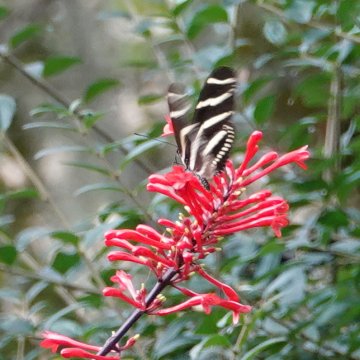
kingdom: Animalia
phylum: Arthropoda
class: Insecta
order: Lepidoptera
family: Nymphalidae
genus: Heliconius
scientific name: Heliconius charithonia
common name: Zebra Longwing
